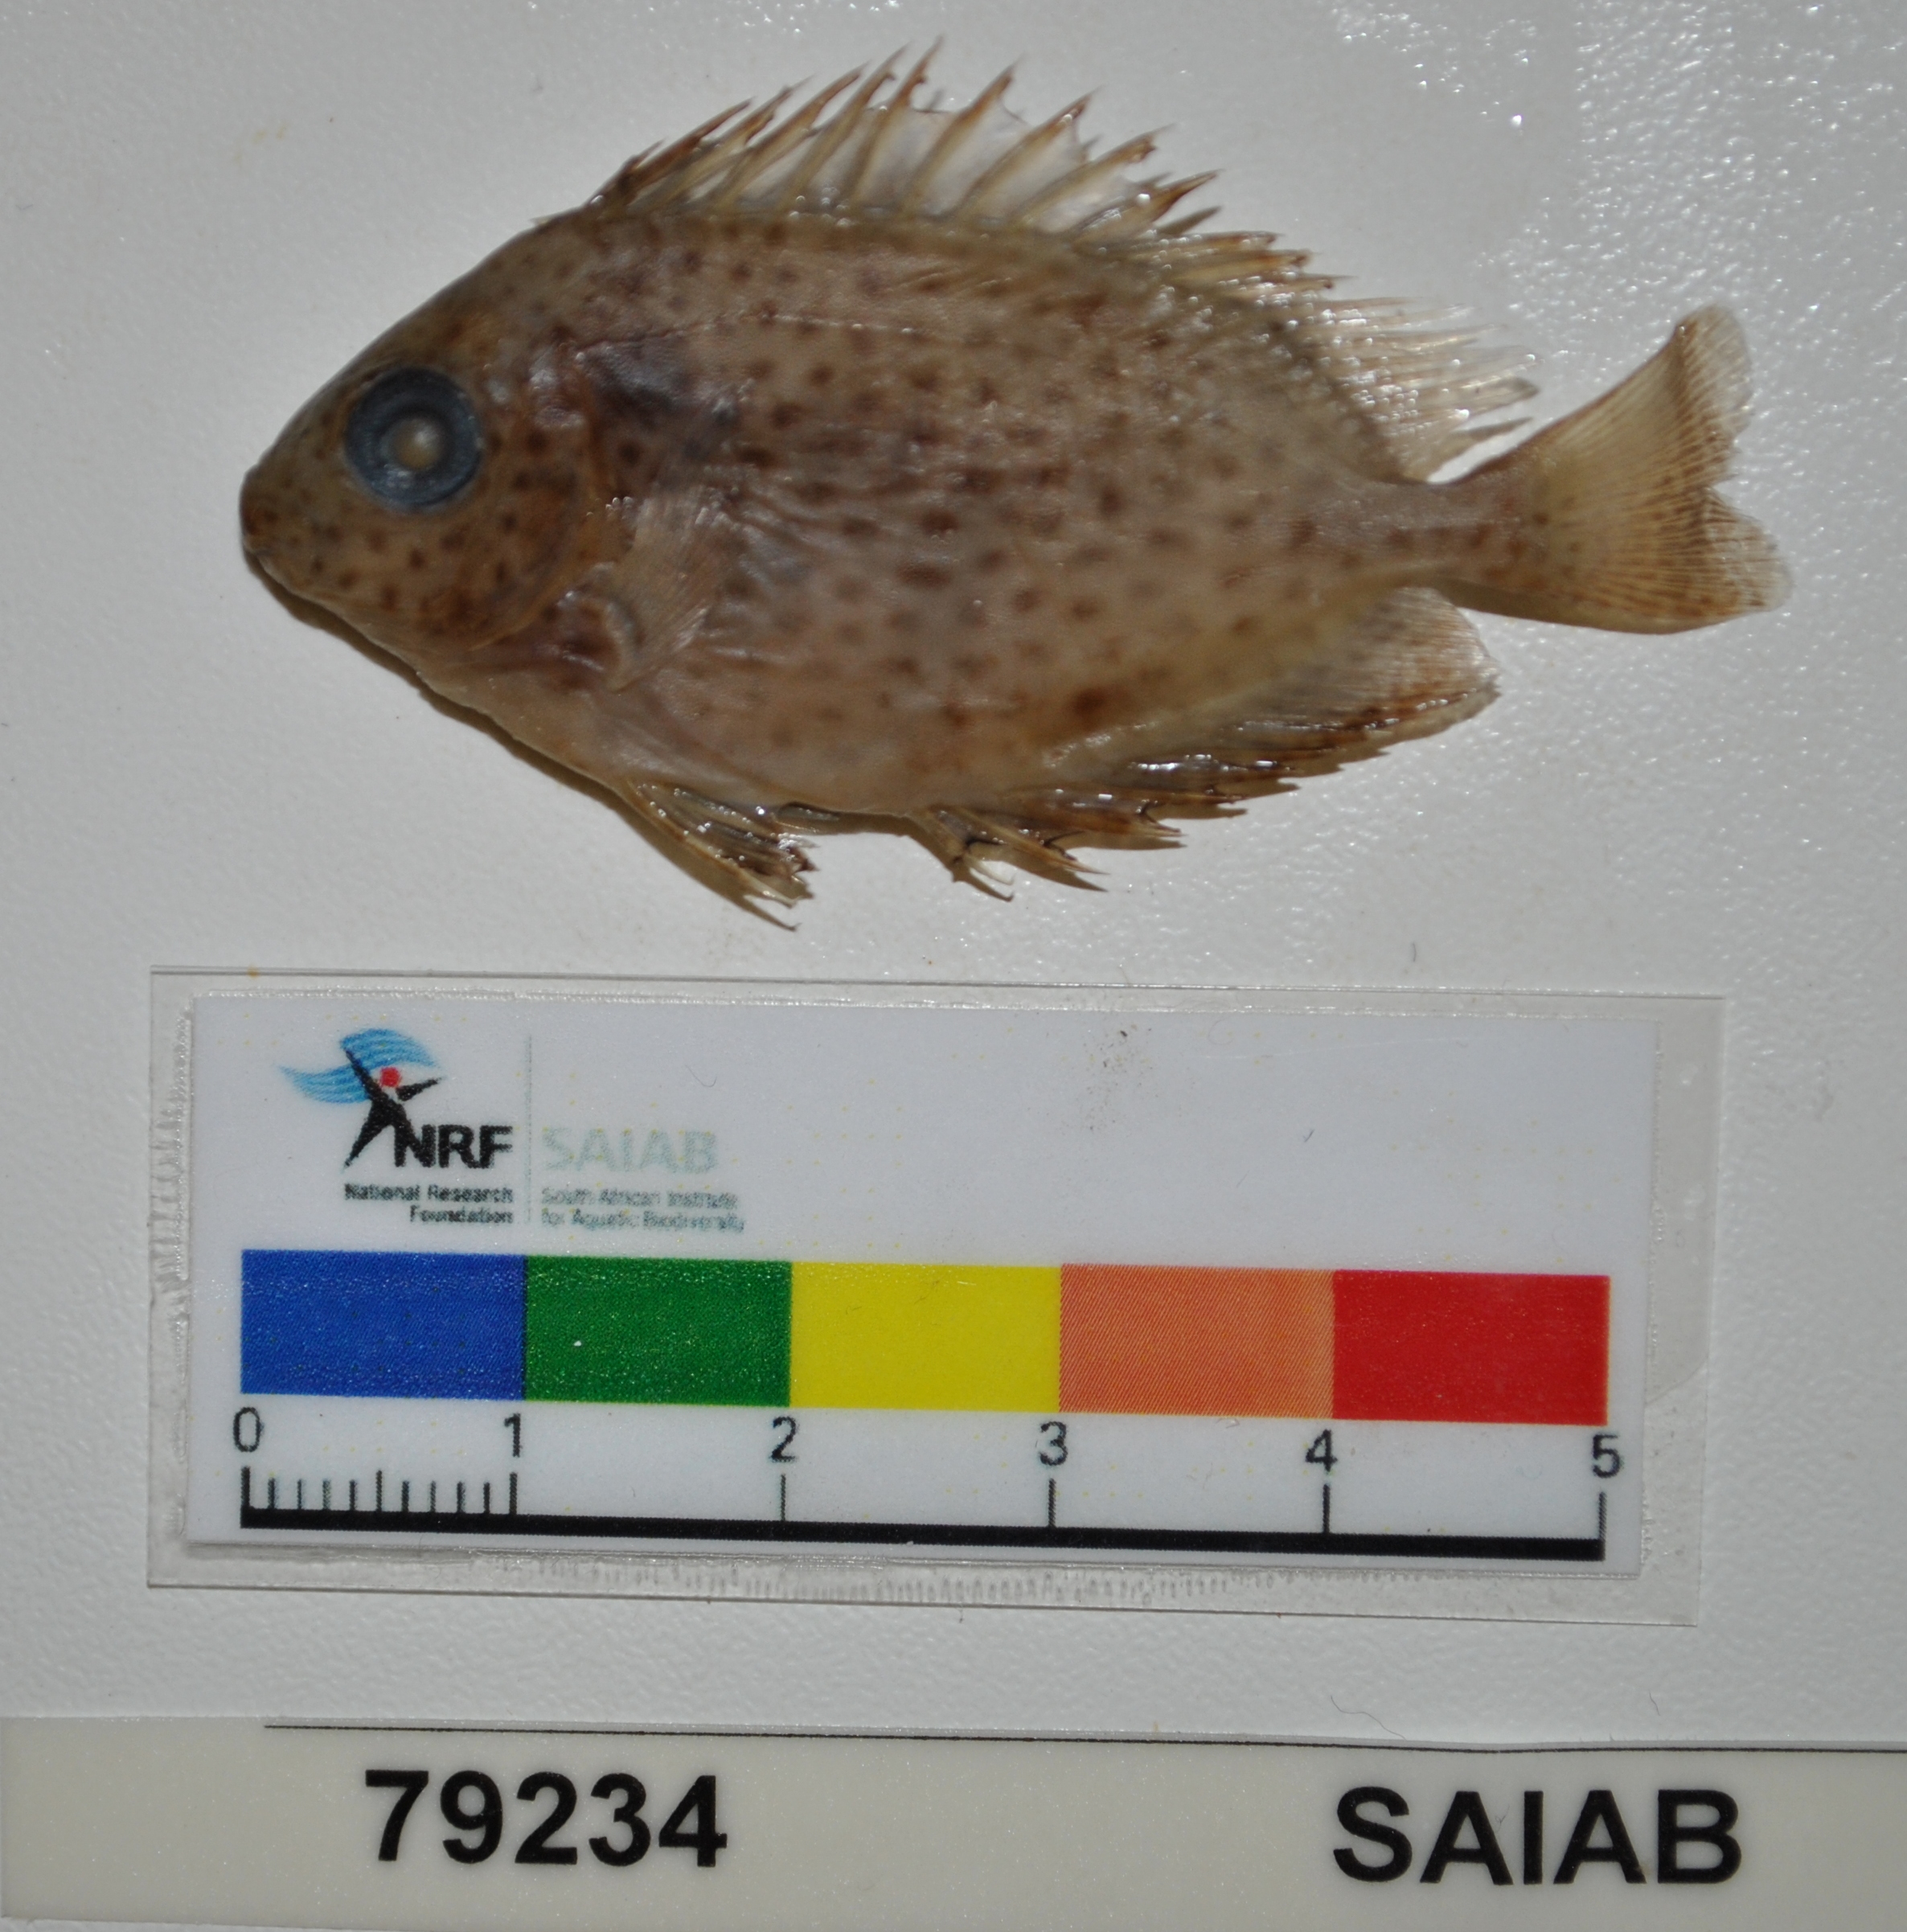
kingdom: Animalia
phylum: Chordata
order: Perciformes
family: Siganidae
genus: Siganus
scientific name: Siganus stellatus
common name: Brown-spotted spinefoot
